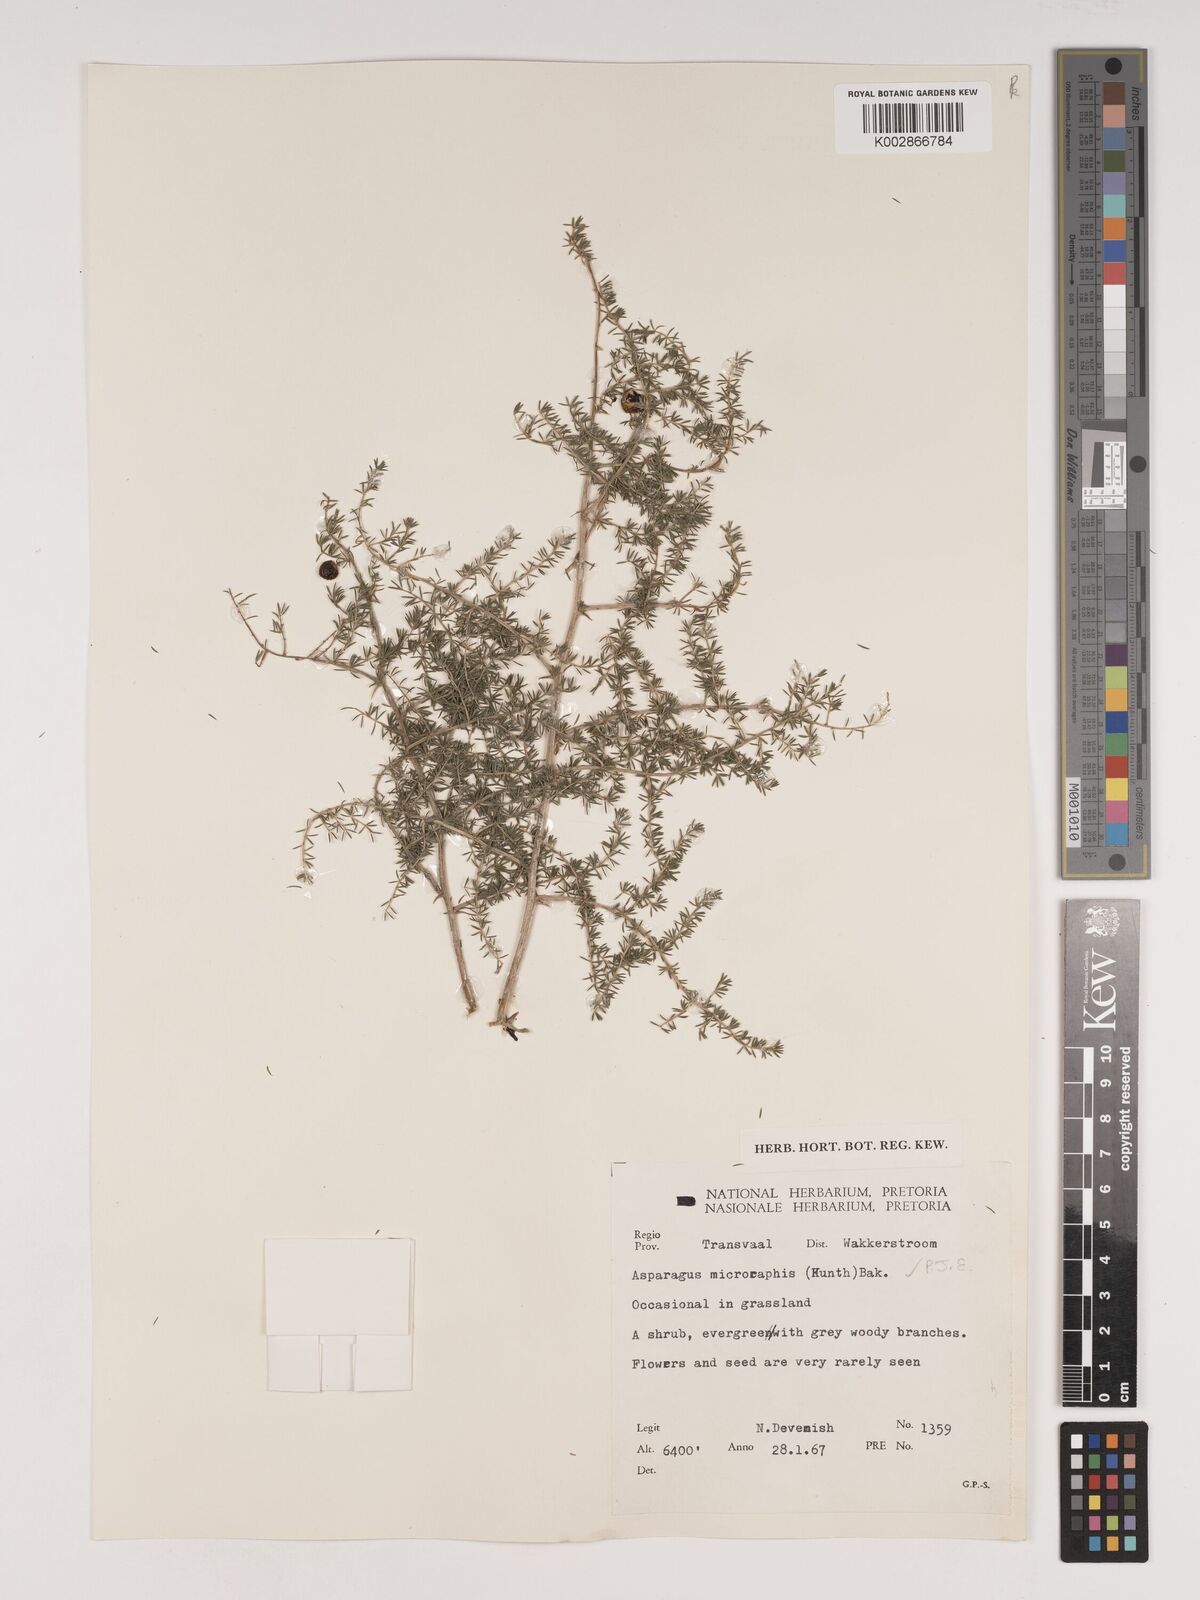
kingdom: Plantae
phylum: Tracheophyta
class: Liliopsida
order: Asparagales
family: Asparagaceae
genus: Asparagus
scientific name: Asparagus microraphis
